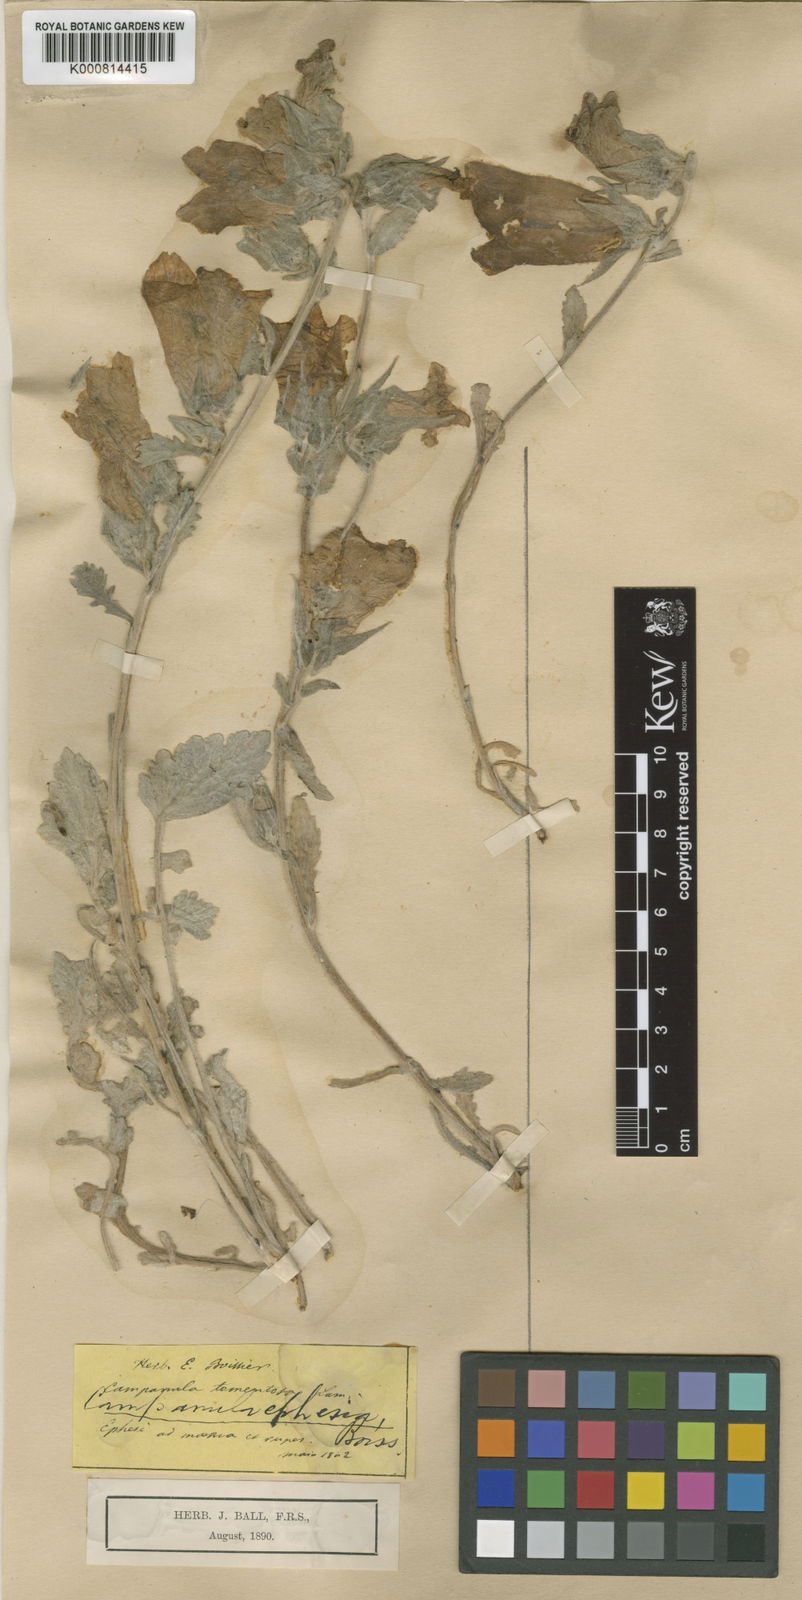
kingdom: Plantae
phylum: Tracheophyta
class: Magnoliopsida
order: Asterales
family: Campanulaceae
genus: Campanula
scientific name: Campanula tomentosa
